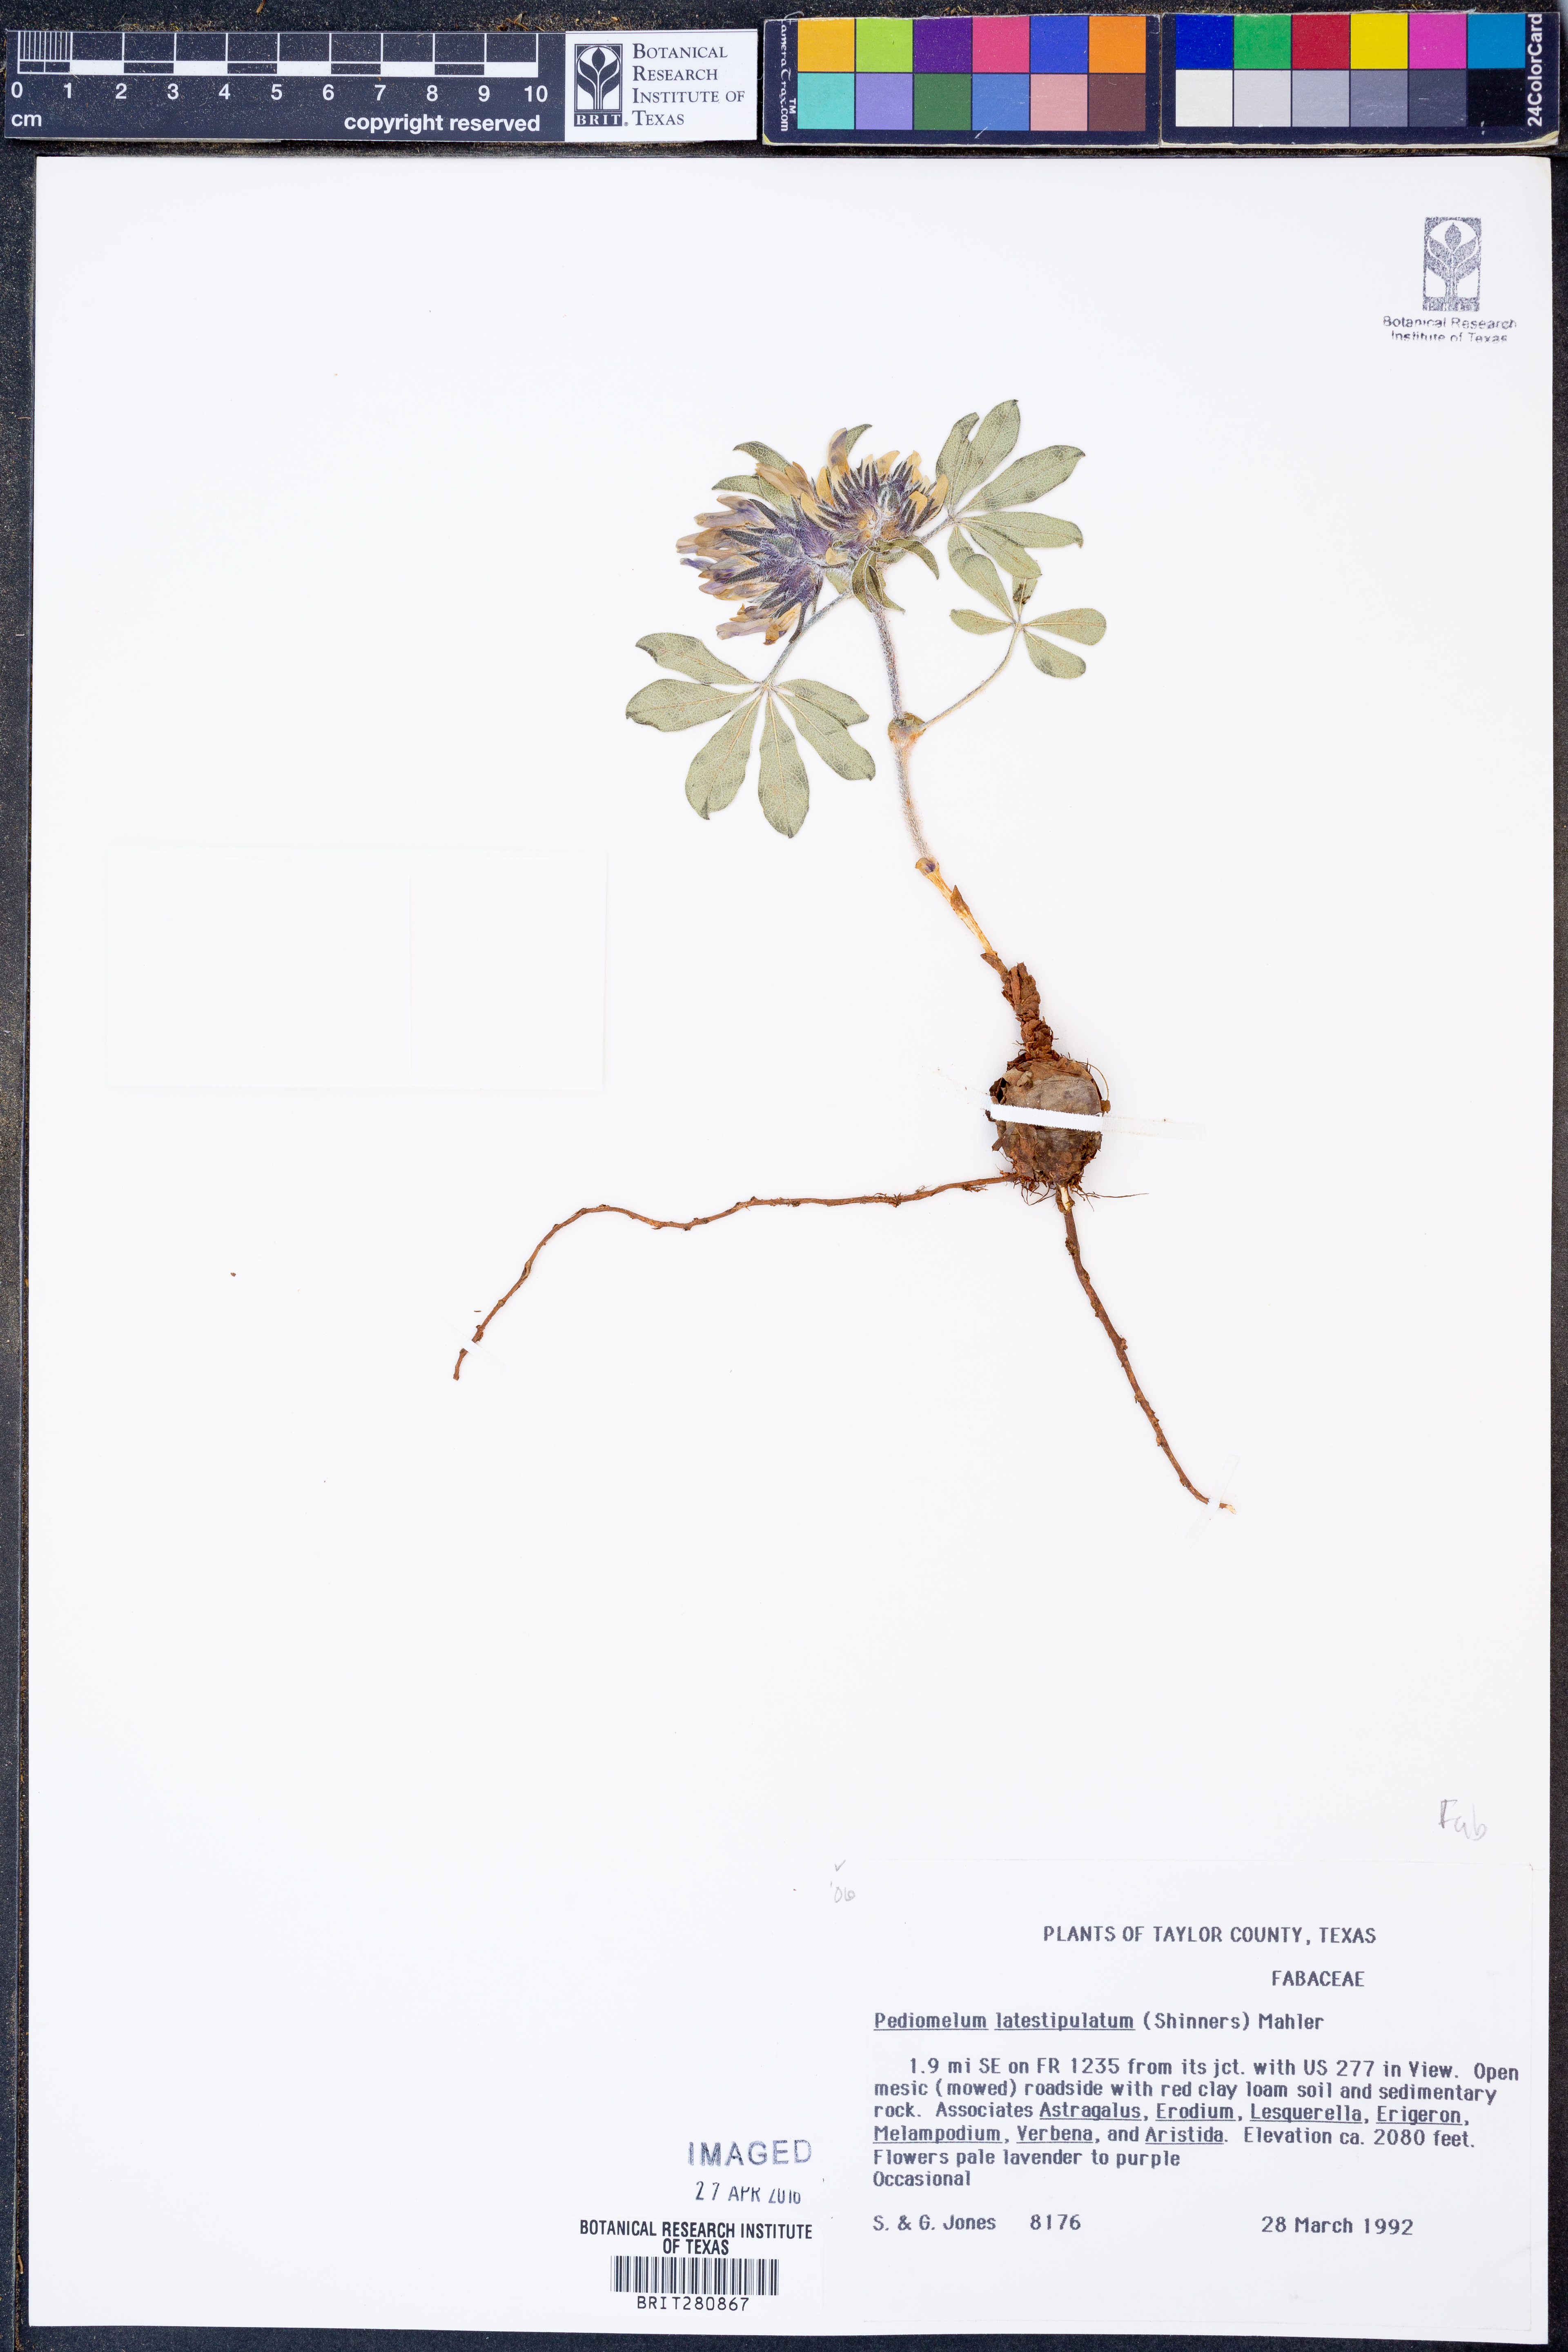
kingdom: Plantae
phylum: Tracheophyta
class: Magnoliopsida
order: Fabales
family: Fabaceae
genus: Pediomelum
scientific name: Pediomelum latestipulatum
